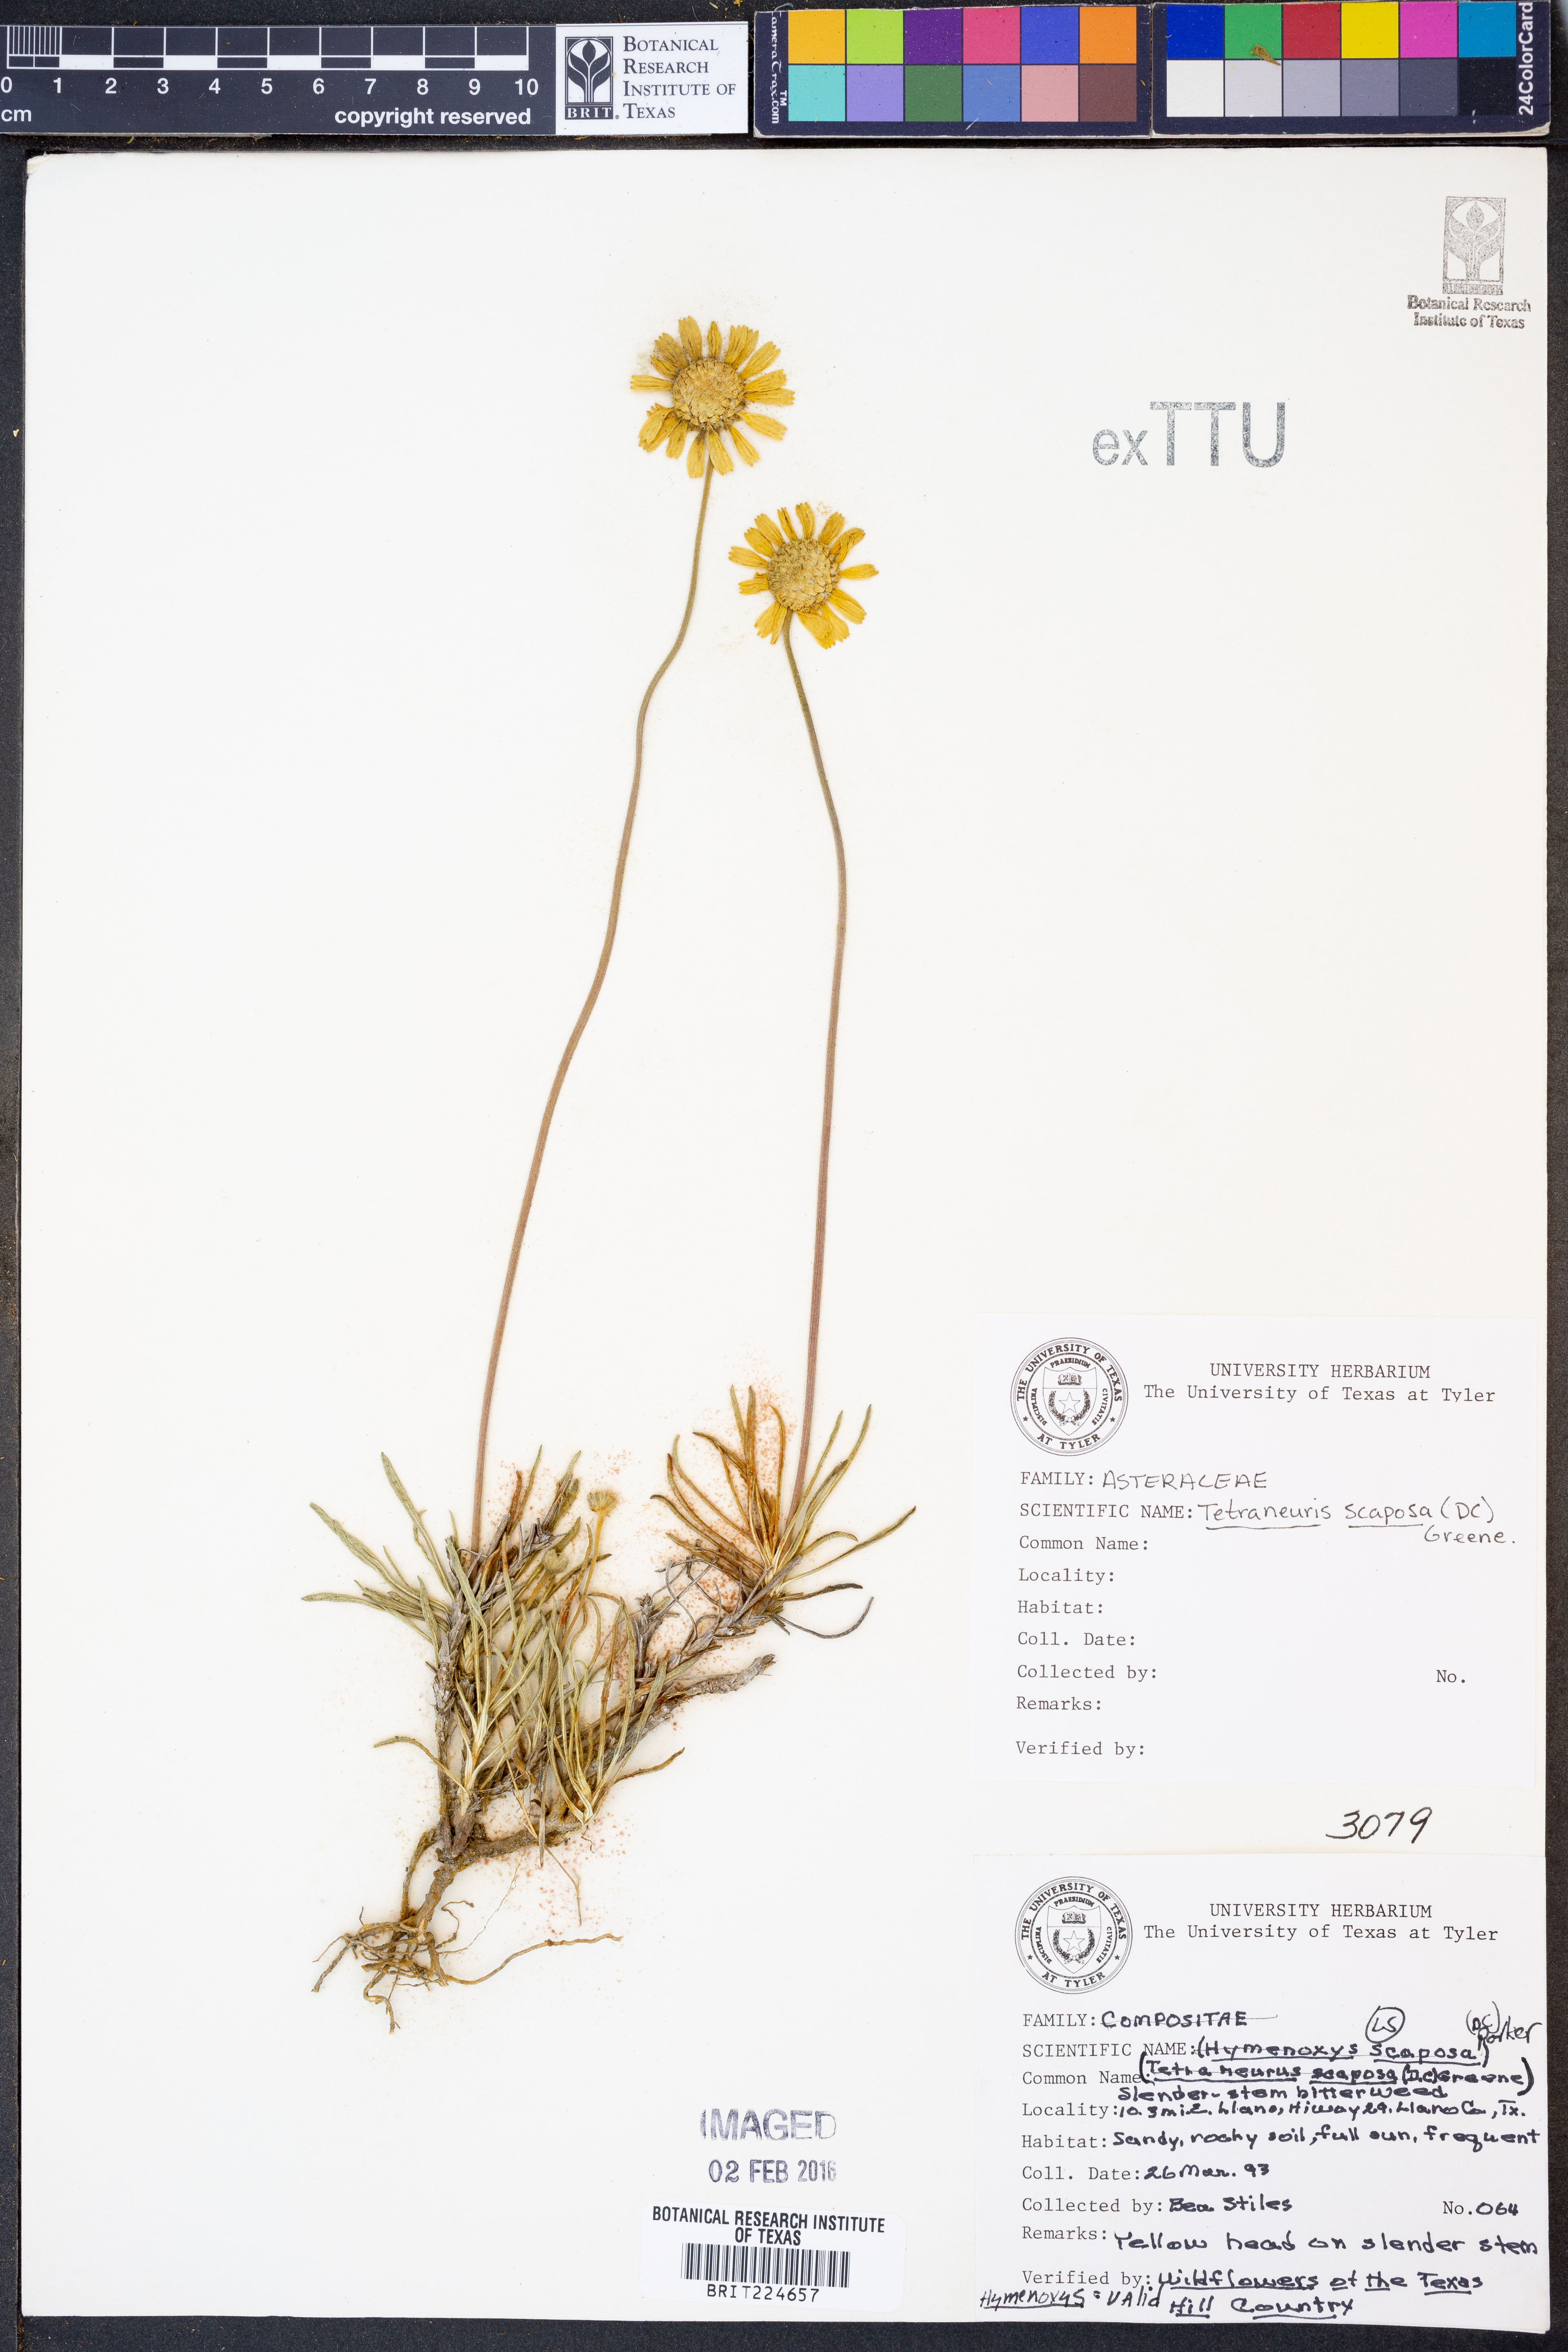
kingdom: Plantae
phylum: Tracheophyta
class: Magnoliopsida
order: Asterales
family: Asteraceae
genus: Tetraneuris
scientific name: Tetraneuris scaposa
